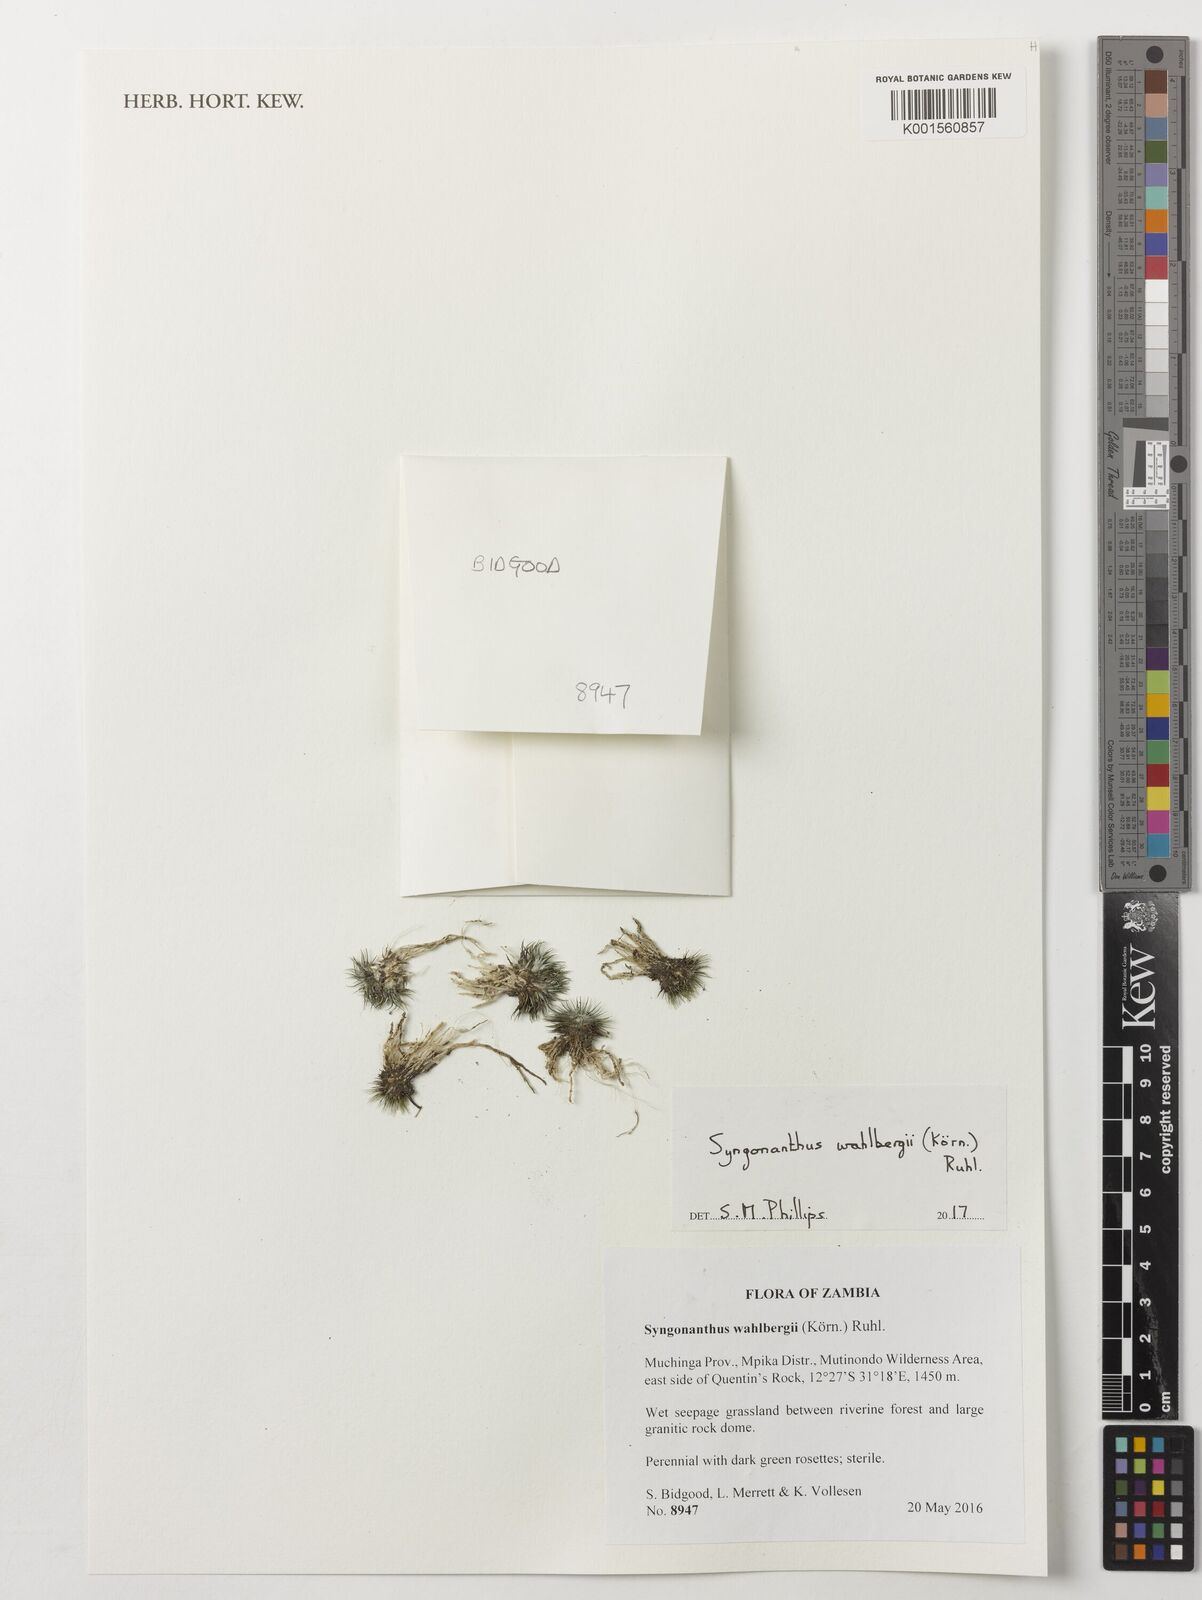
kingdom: Plantae
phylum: Tracheophyta
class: Liliopsida
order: Poales
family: Eriocaulaceae
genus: Syngonanthus
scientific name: Syngonanthus wahlbergii
